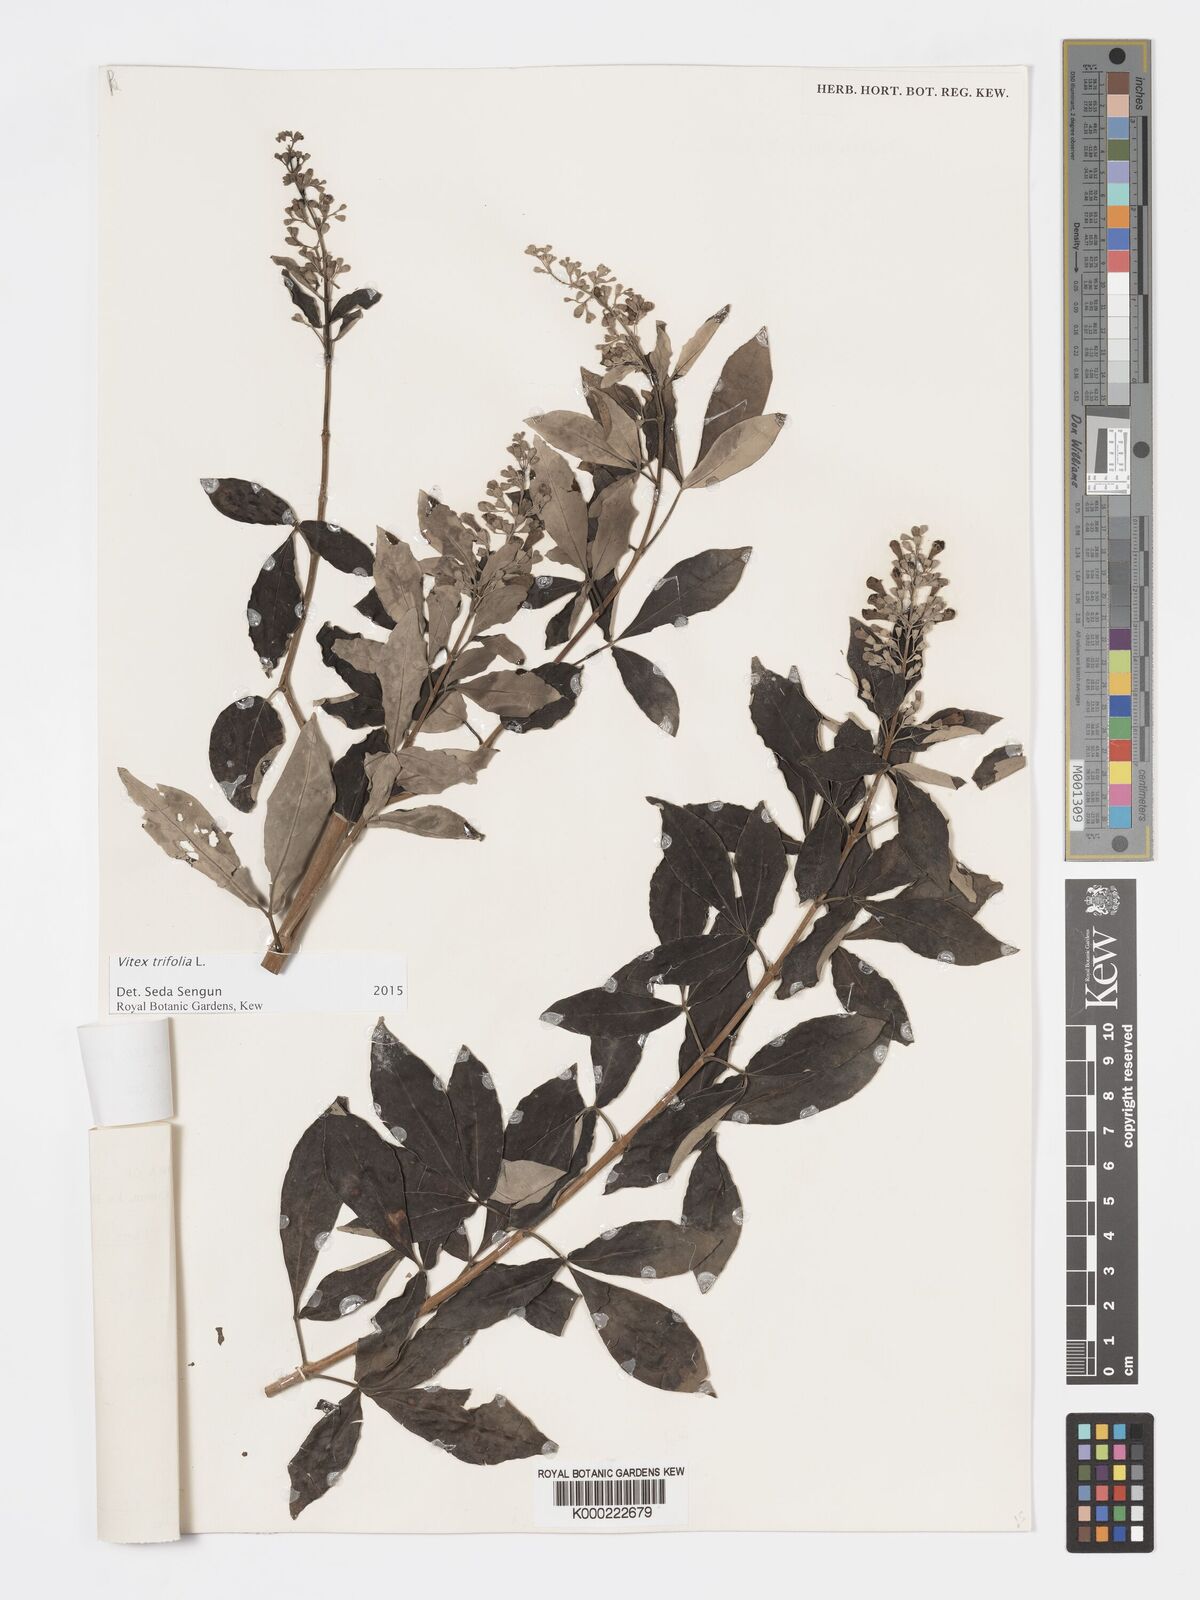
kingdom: Plantae
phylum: Tracheophyta
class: Magnoliopsida
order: Lamiales
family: Lamiaceae
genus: Vitex
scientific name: Vitex trifolia
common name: Simpleleaf chastetree
